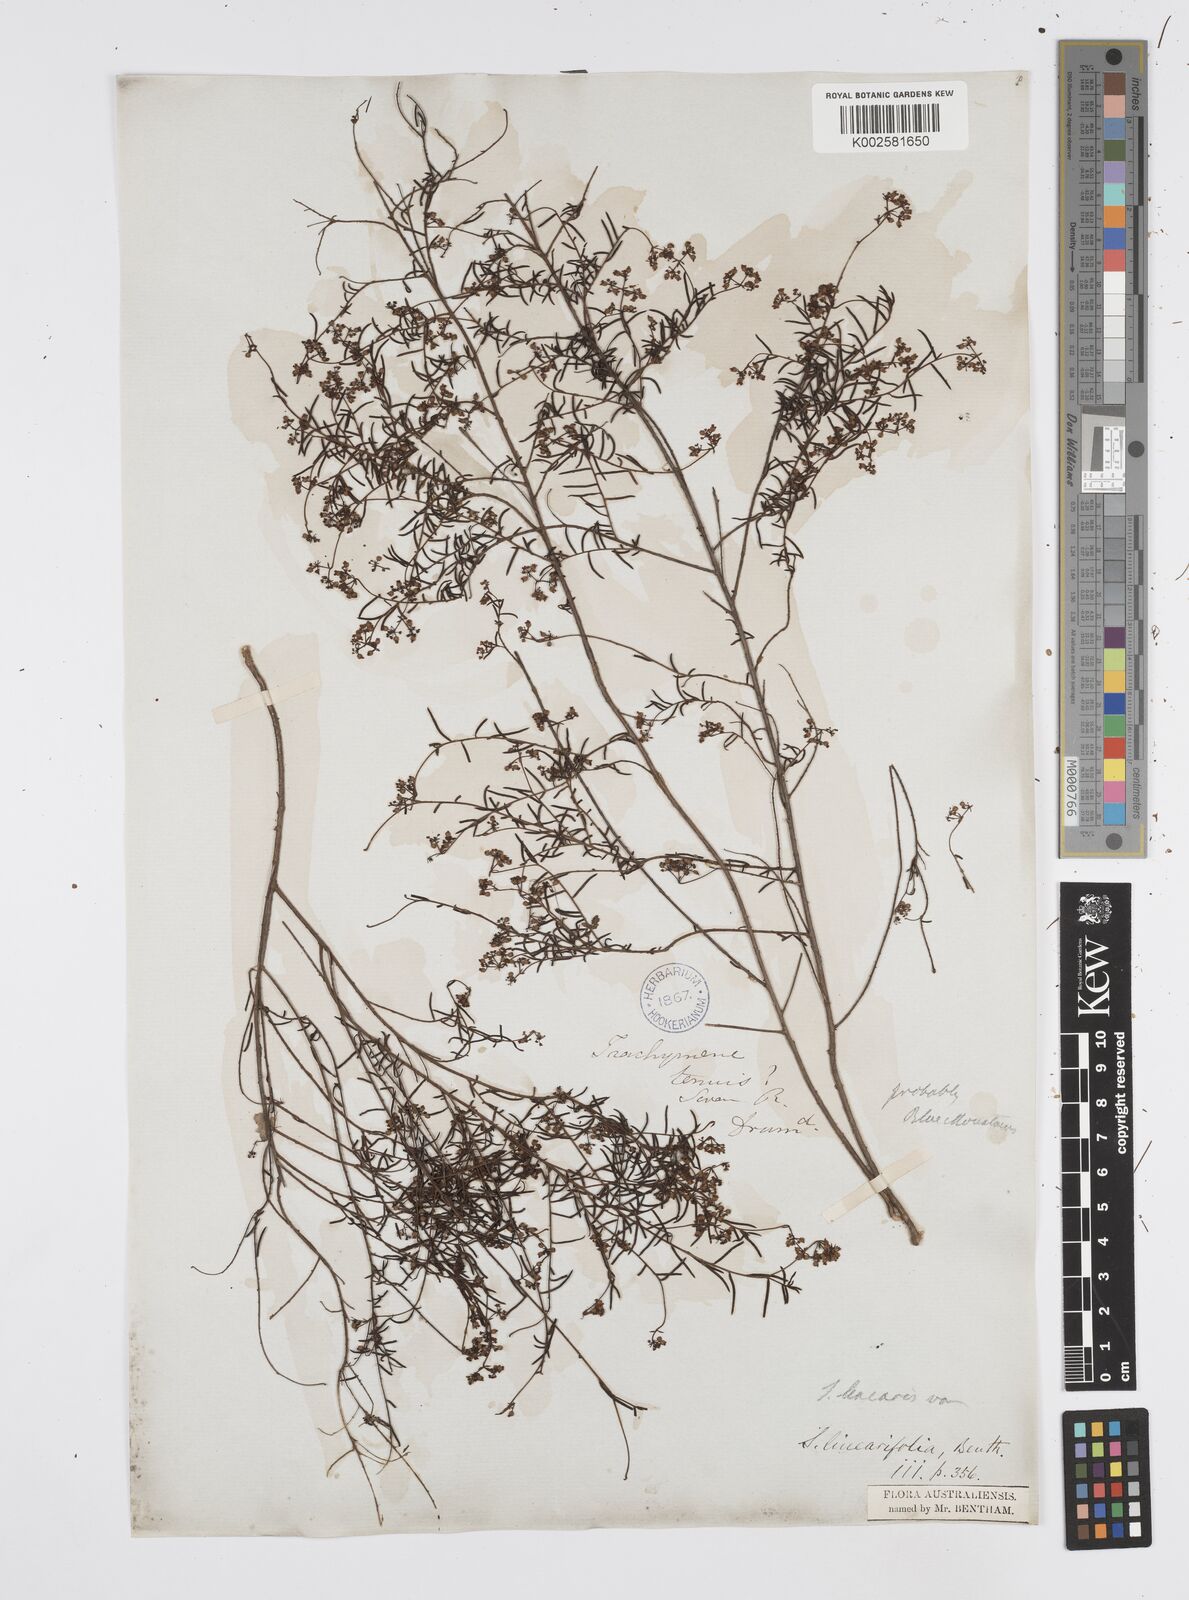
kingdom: Plantae
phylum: Tracheophyta
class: Magnoliopsida
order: Apiales
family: Apiaceae
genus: Platysace
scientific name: Platysace linearifolia
